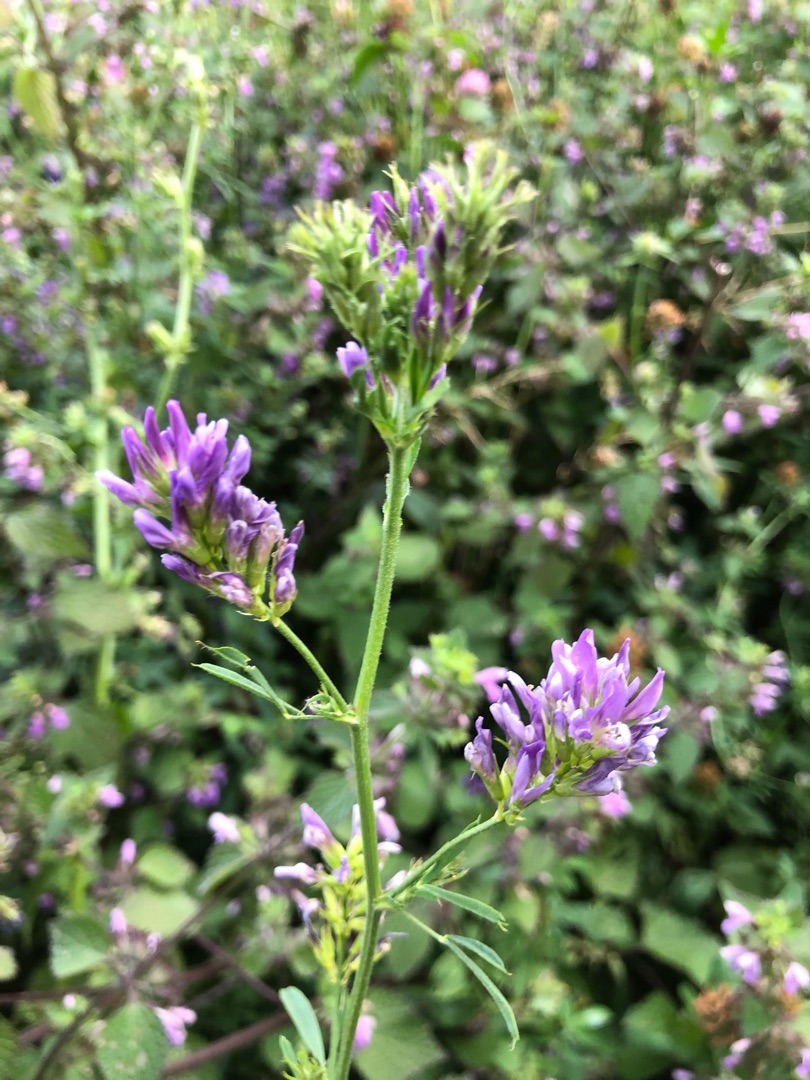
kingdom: Plantae
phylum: Tracheophyta
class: Magnoliopsida
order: Fabales
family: Fabaceae
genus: Medicago
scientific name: Medicago sativa
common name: Lucerne
